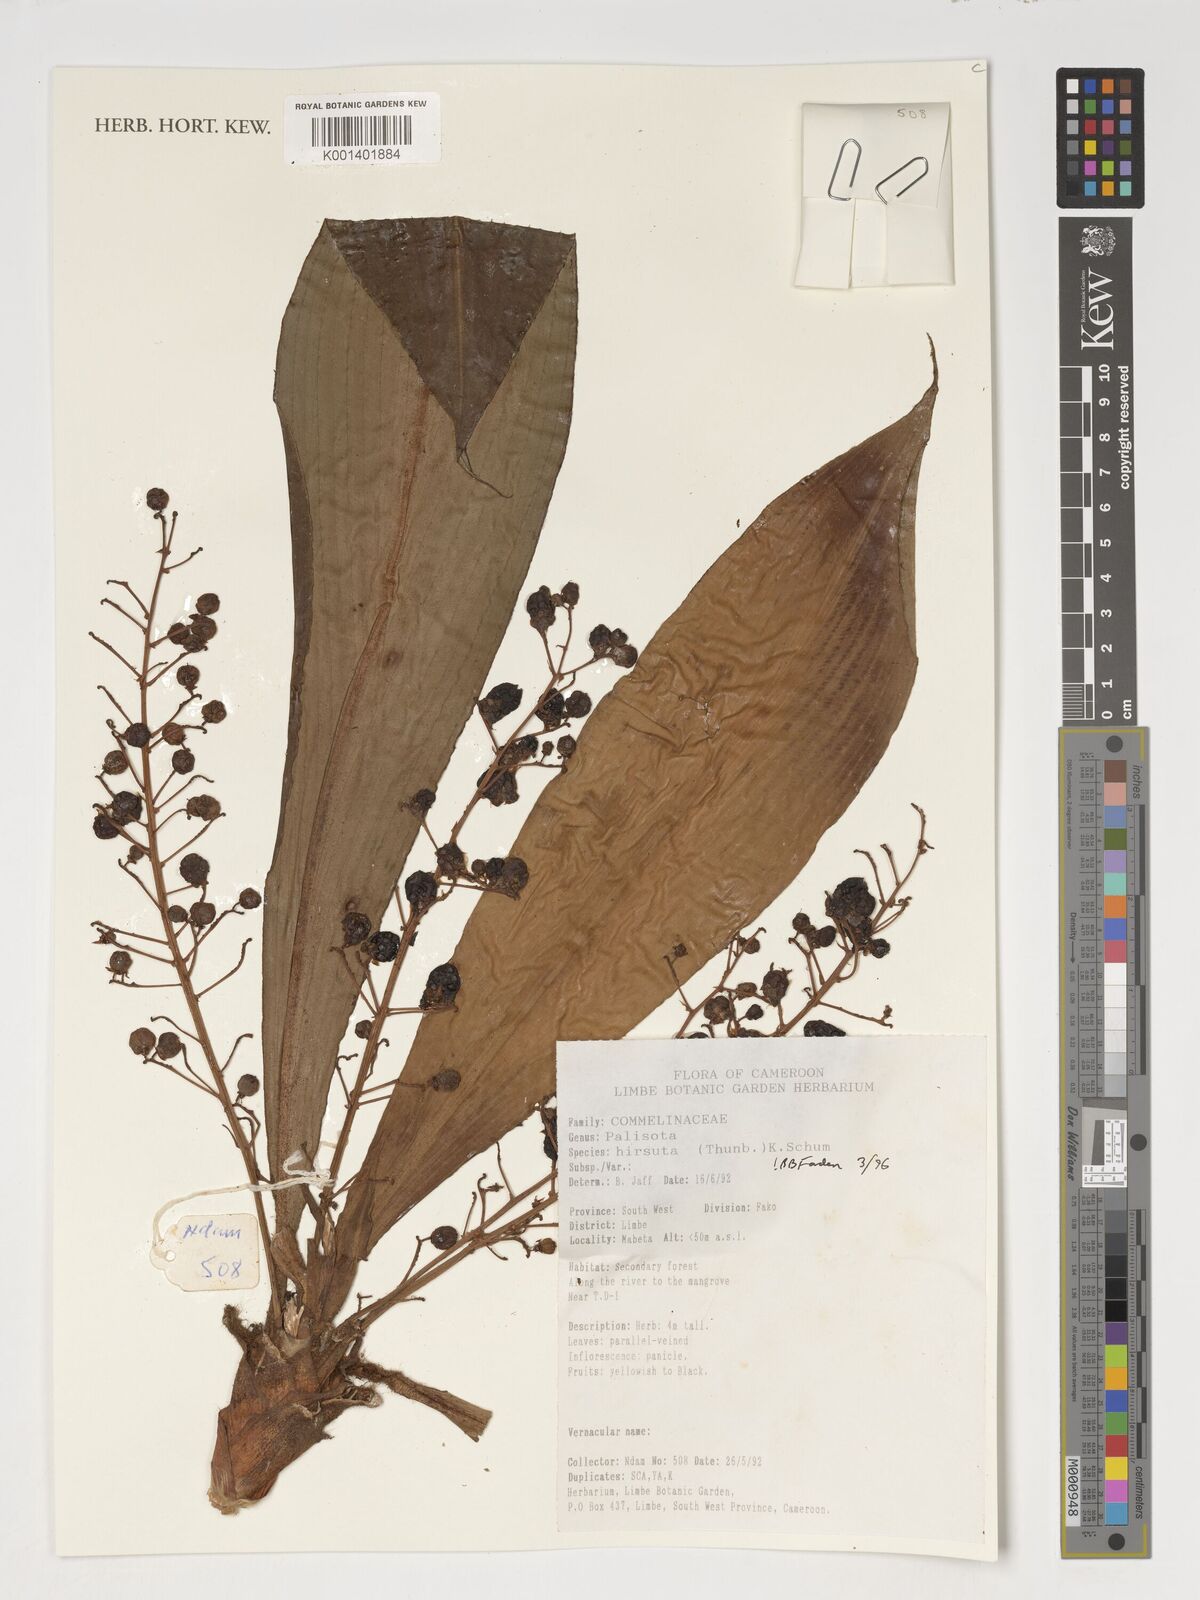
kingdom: Plantae
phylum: Tracheophyta
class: Liliopsida
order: Commelinales
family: Commelinaceae
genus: Palisota
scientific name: Palisota hirsuta
